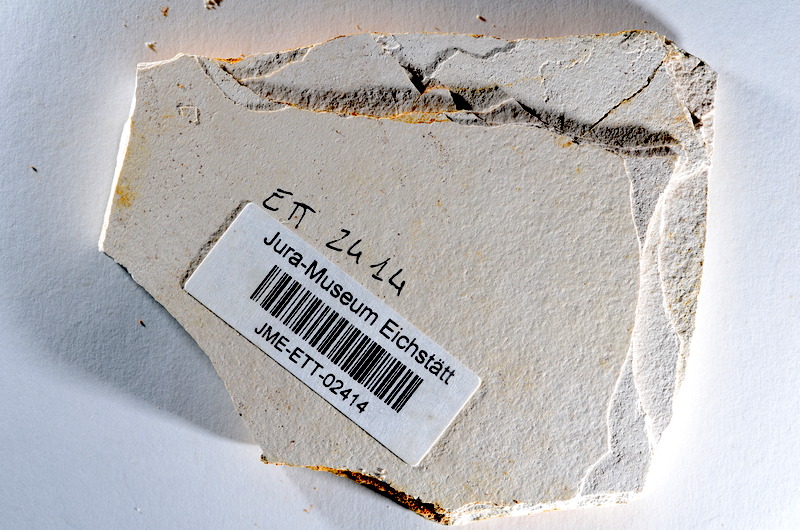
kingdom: Animalia
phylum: Chordata
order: Salmoniformes
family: Orthogonikleithridae
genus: Orthogonikleithrus
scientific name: Orthogonikleithrus hoelli
